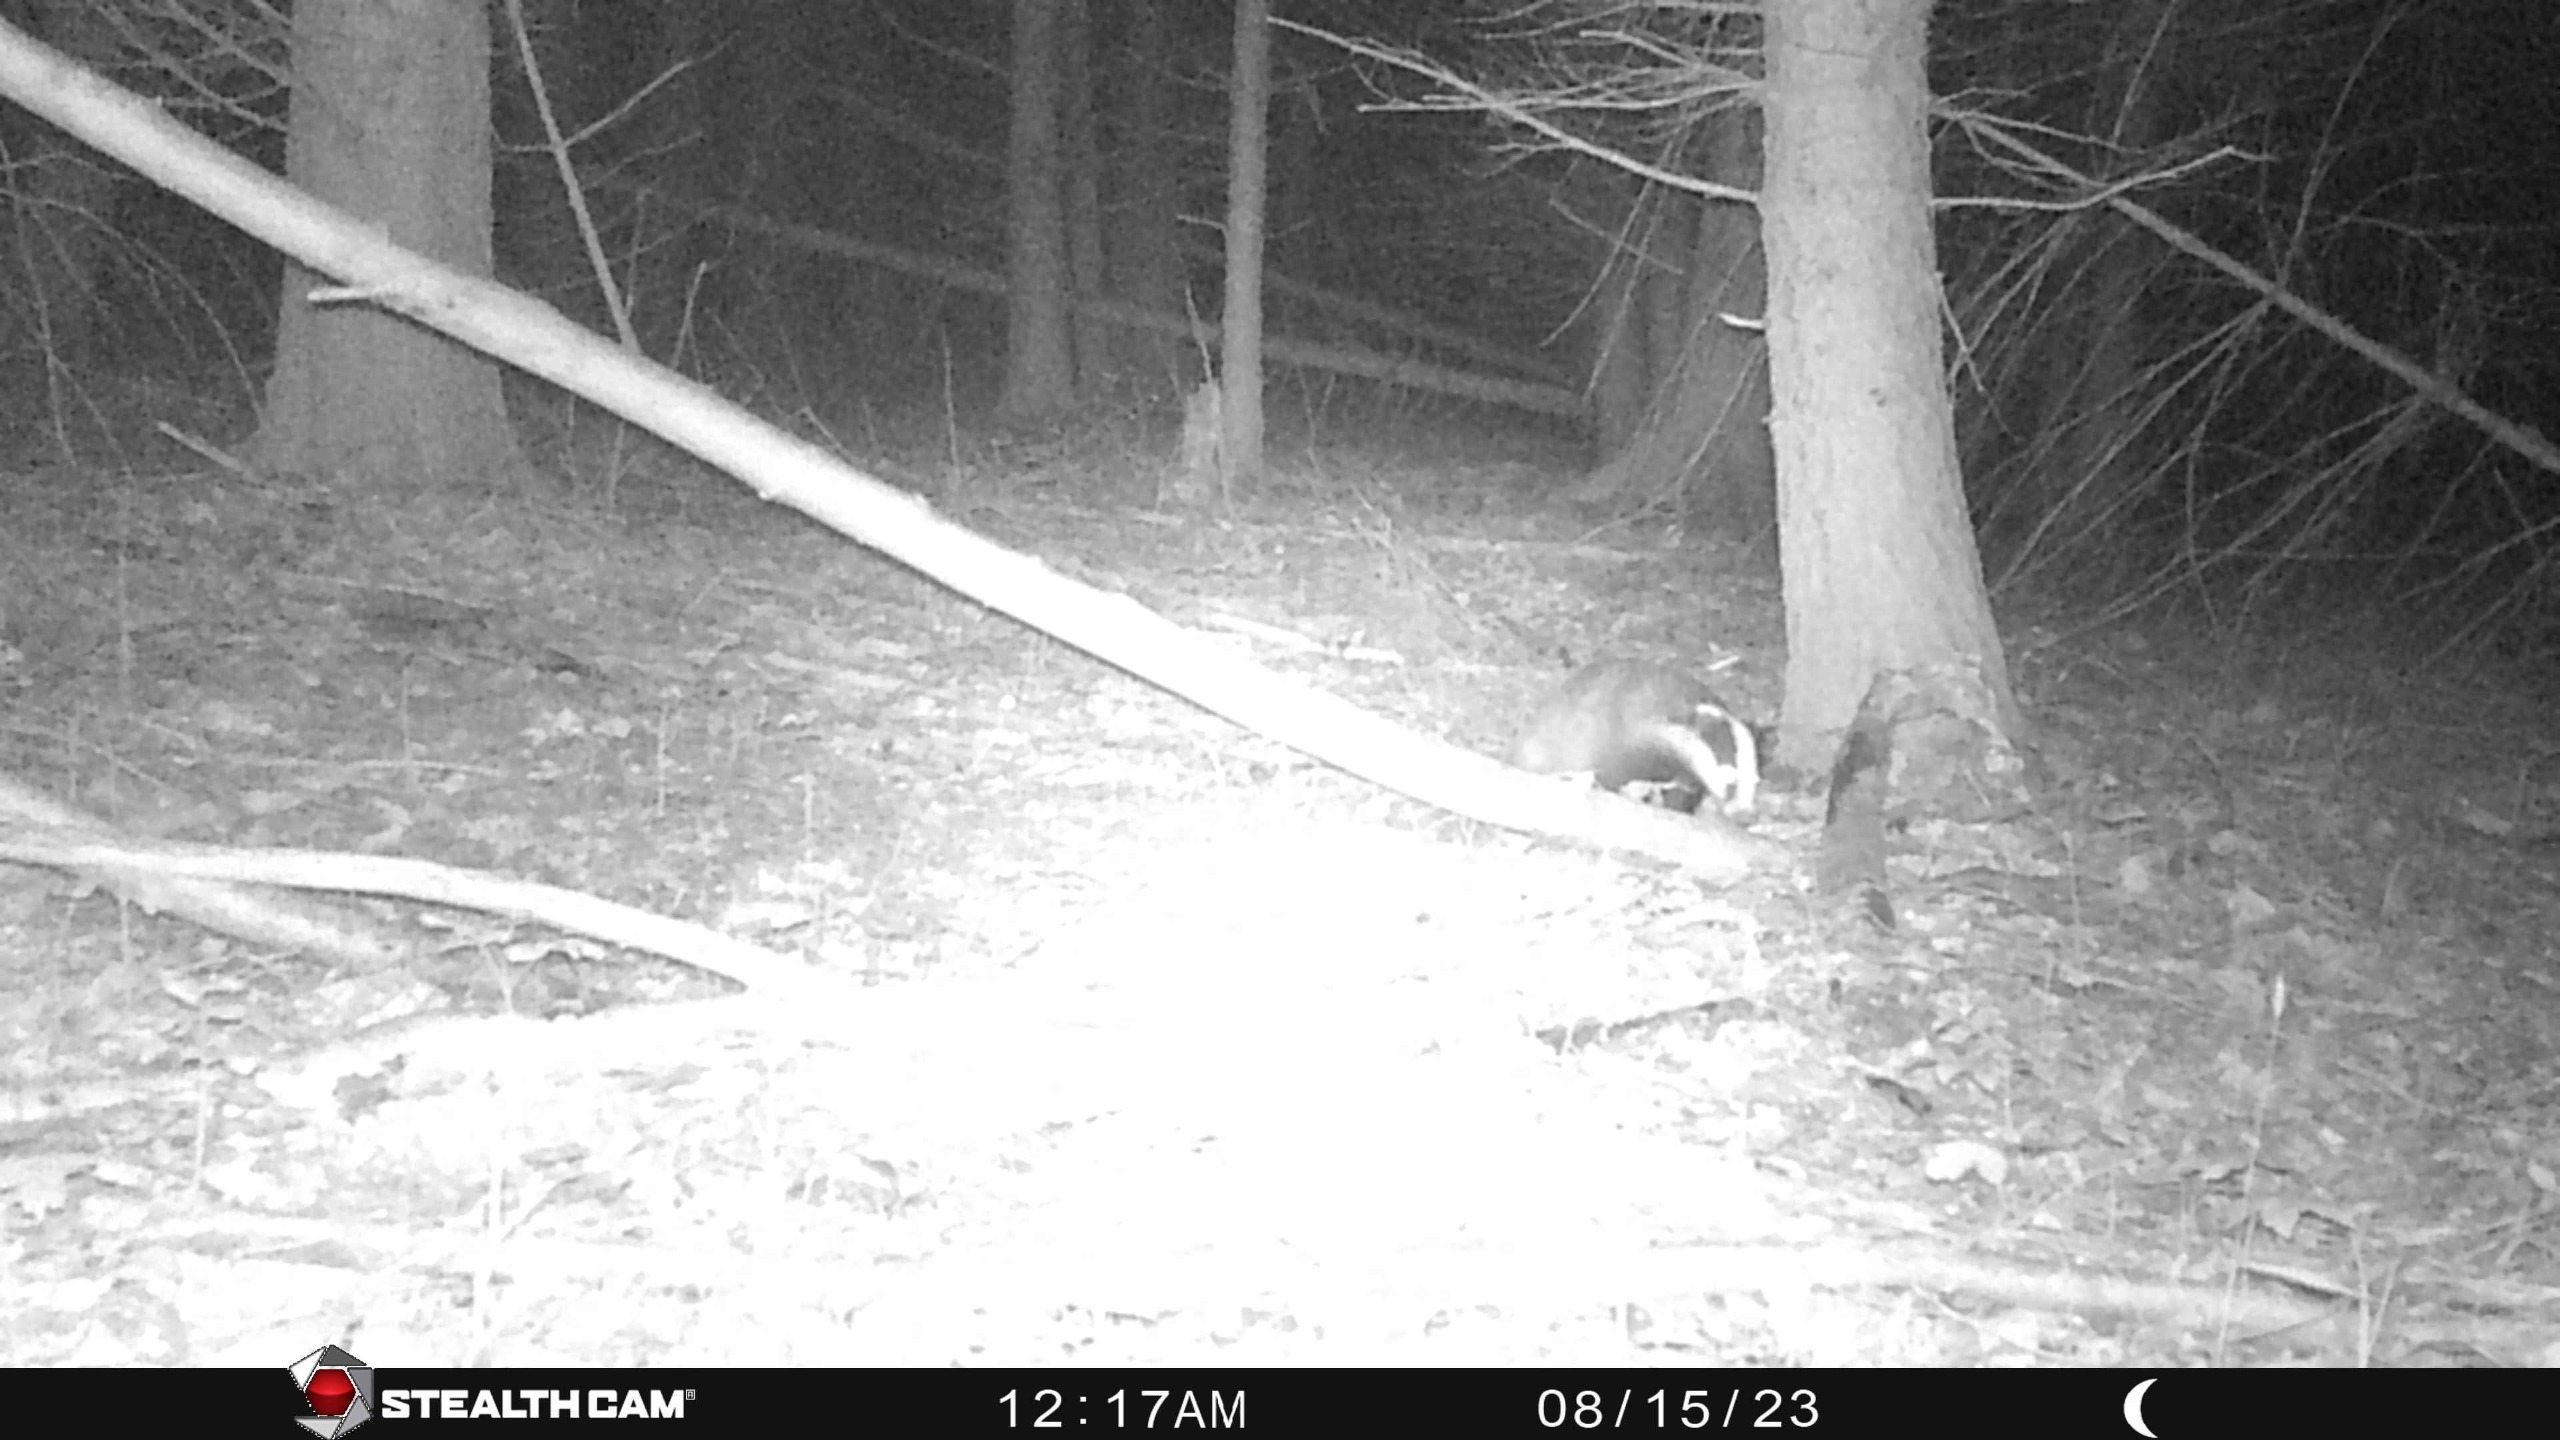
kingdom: Animalia
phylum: Chordata
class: Mammalia
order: Carnivora
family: Mustelidae
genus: Meles
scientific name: Meles meles
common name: Grævling
